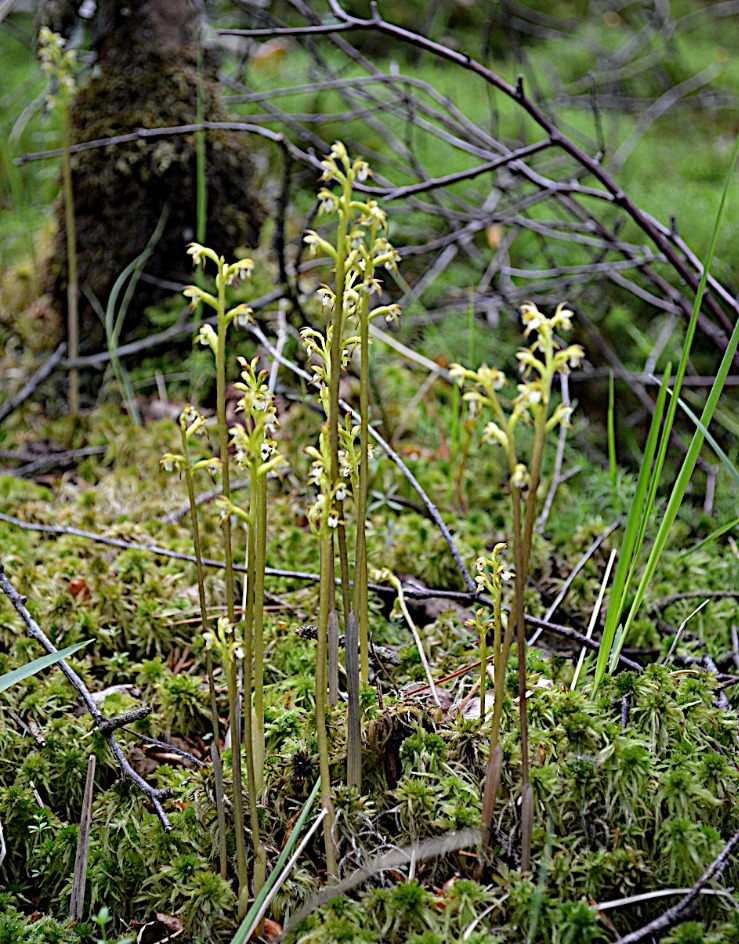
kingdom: Plantae
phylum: Tracheophyta
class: Liliopsida
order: Asparagales
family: Orchidaceae
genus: Corallorhiza
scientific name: Corallorhiza trifida
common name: Koralrod
